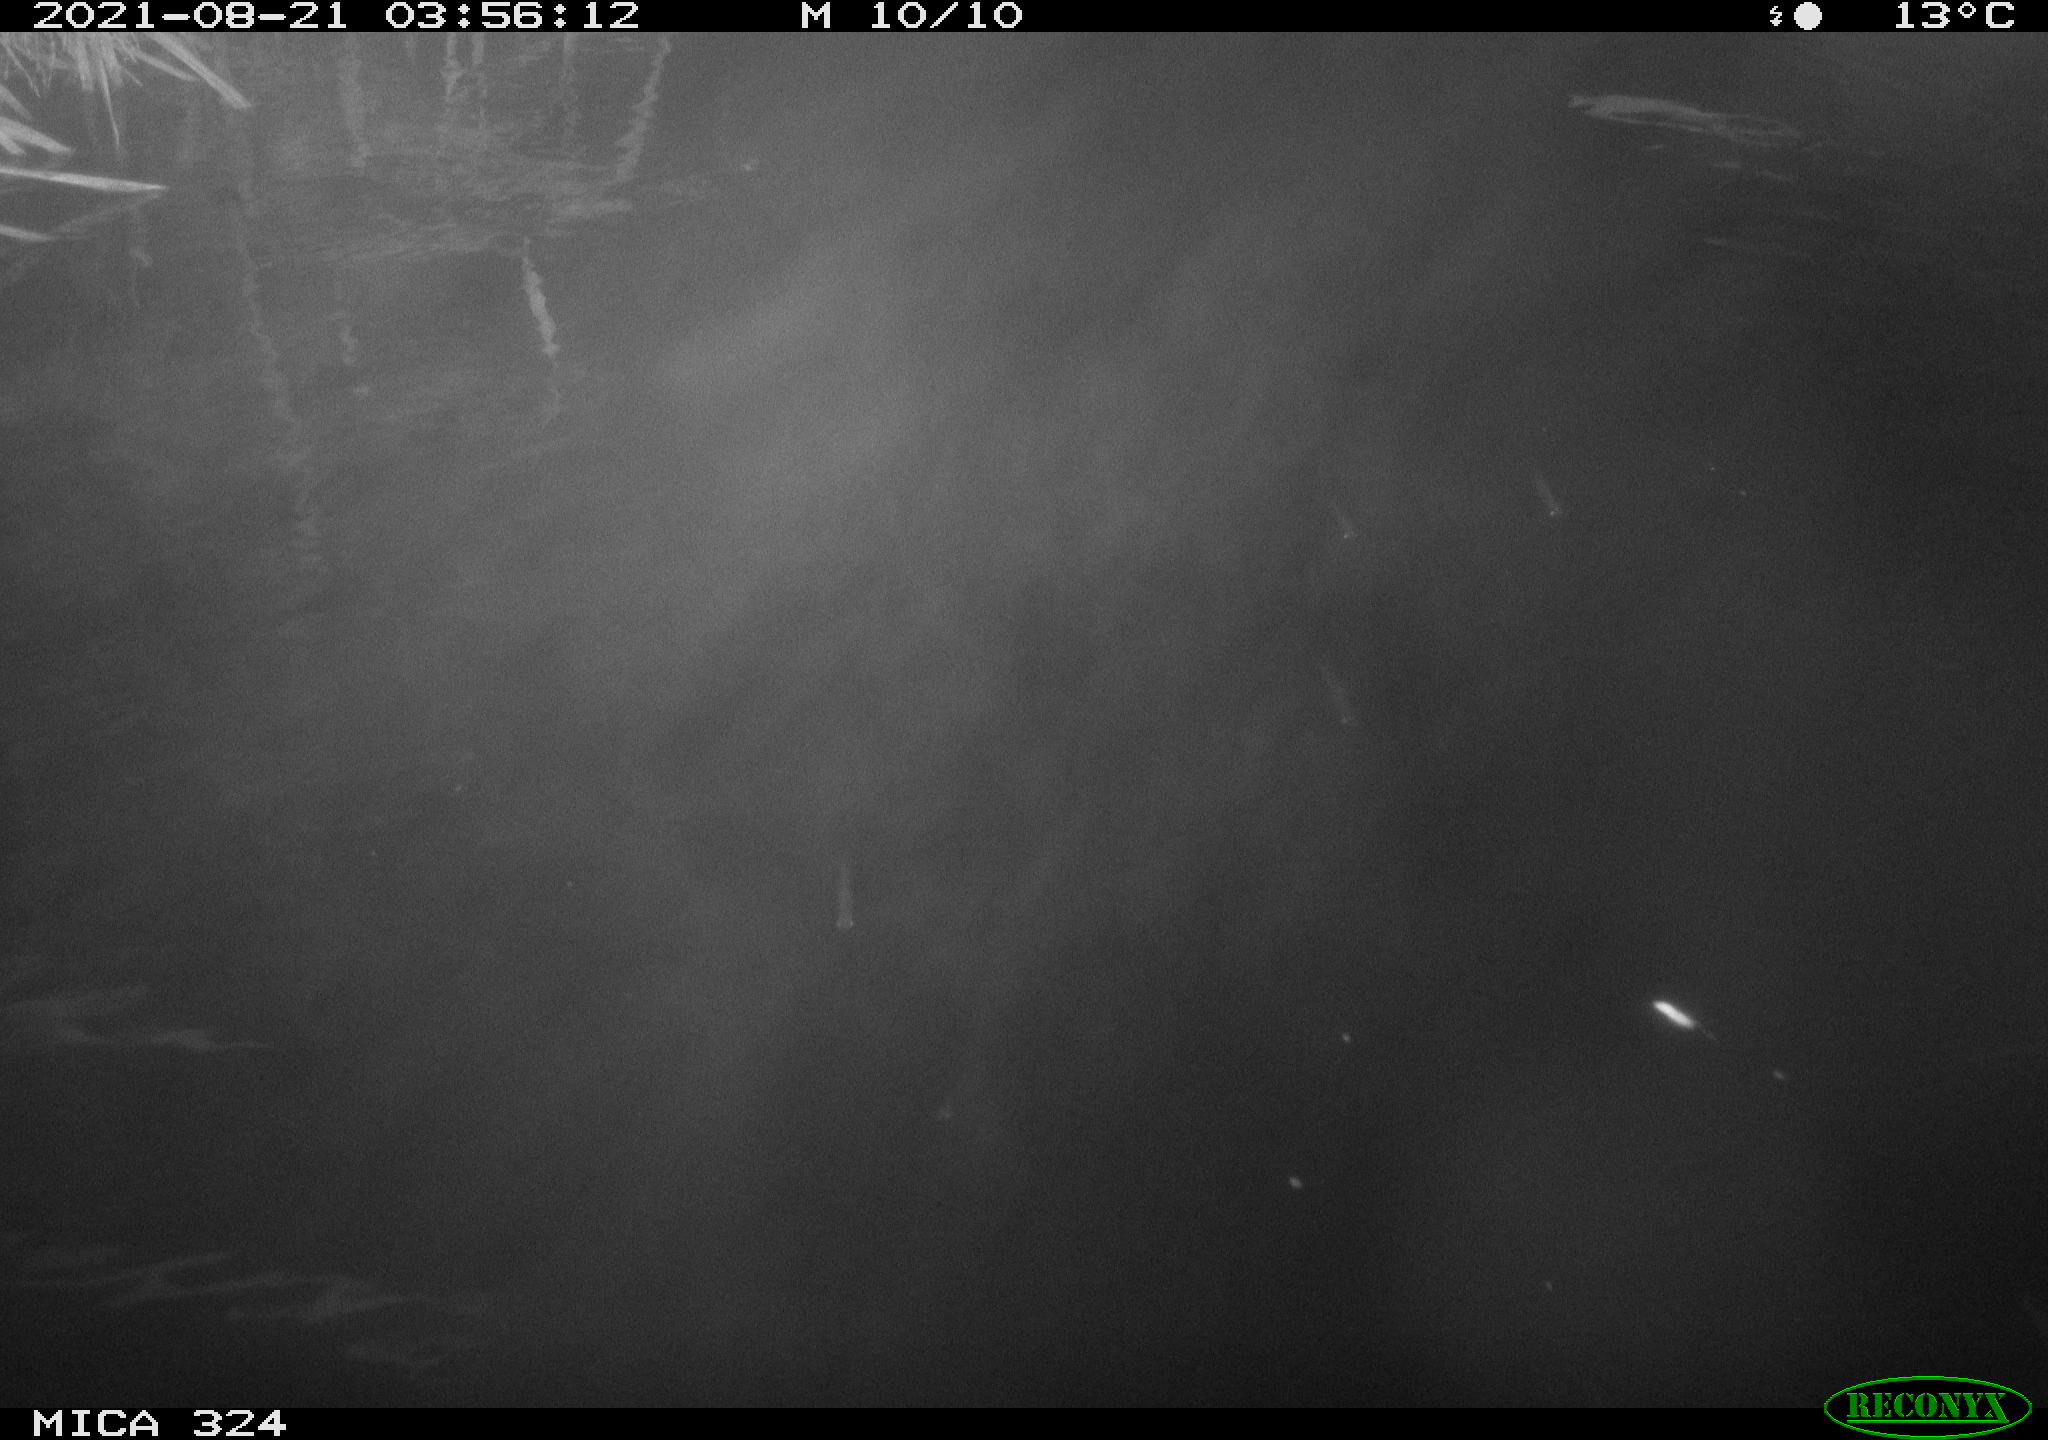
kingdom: Animalia
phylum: Chordata
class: Mammalia
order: Rodentia
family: Cricetidae
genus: Ondatra
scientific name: Ondatra zibethicus
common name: Muskrat
